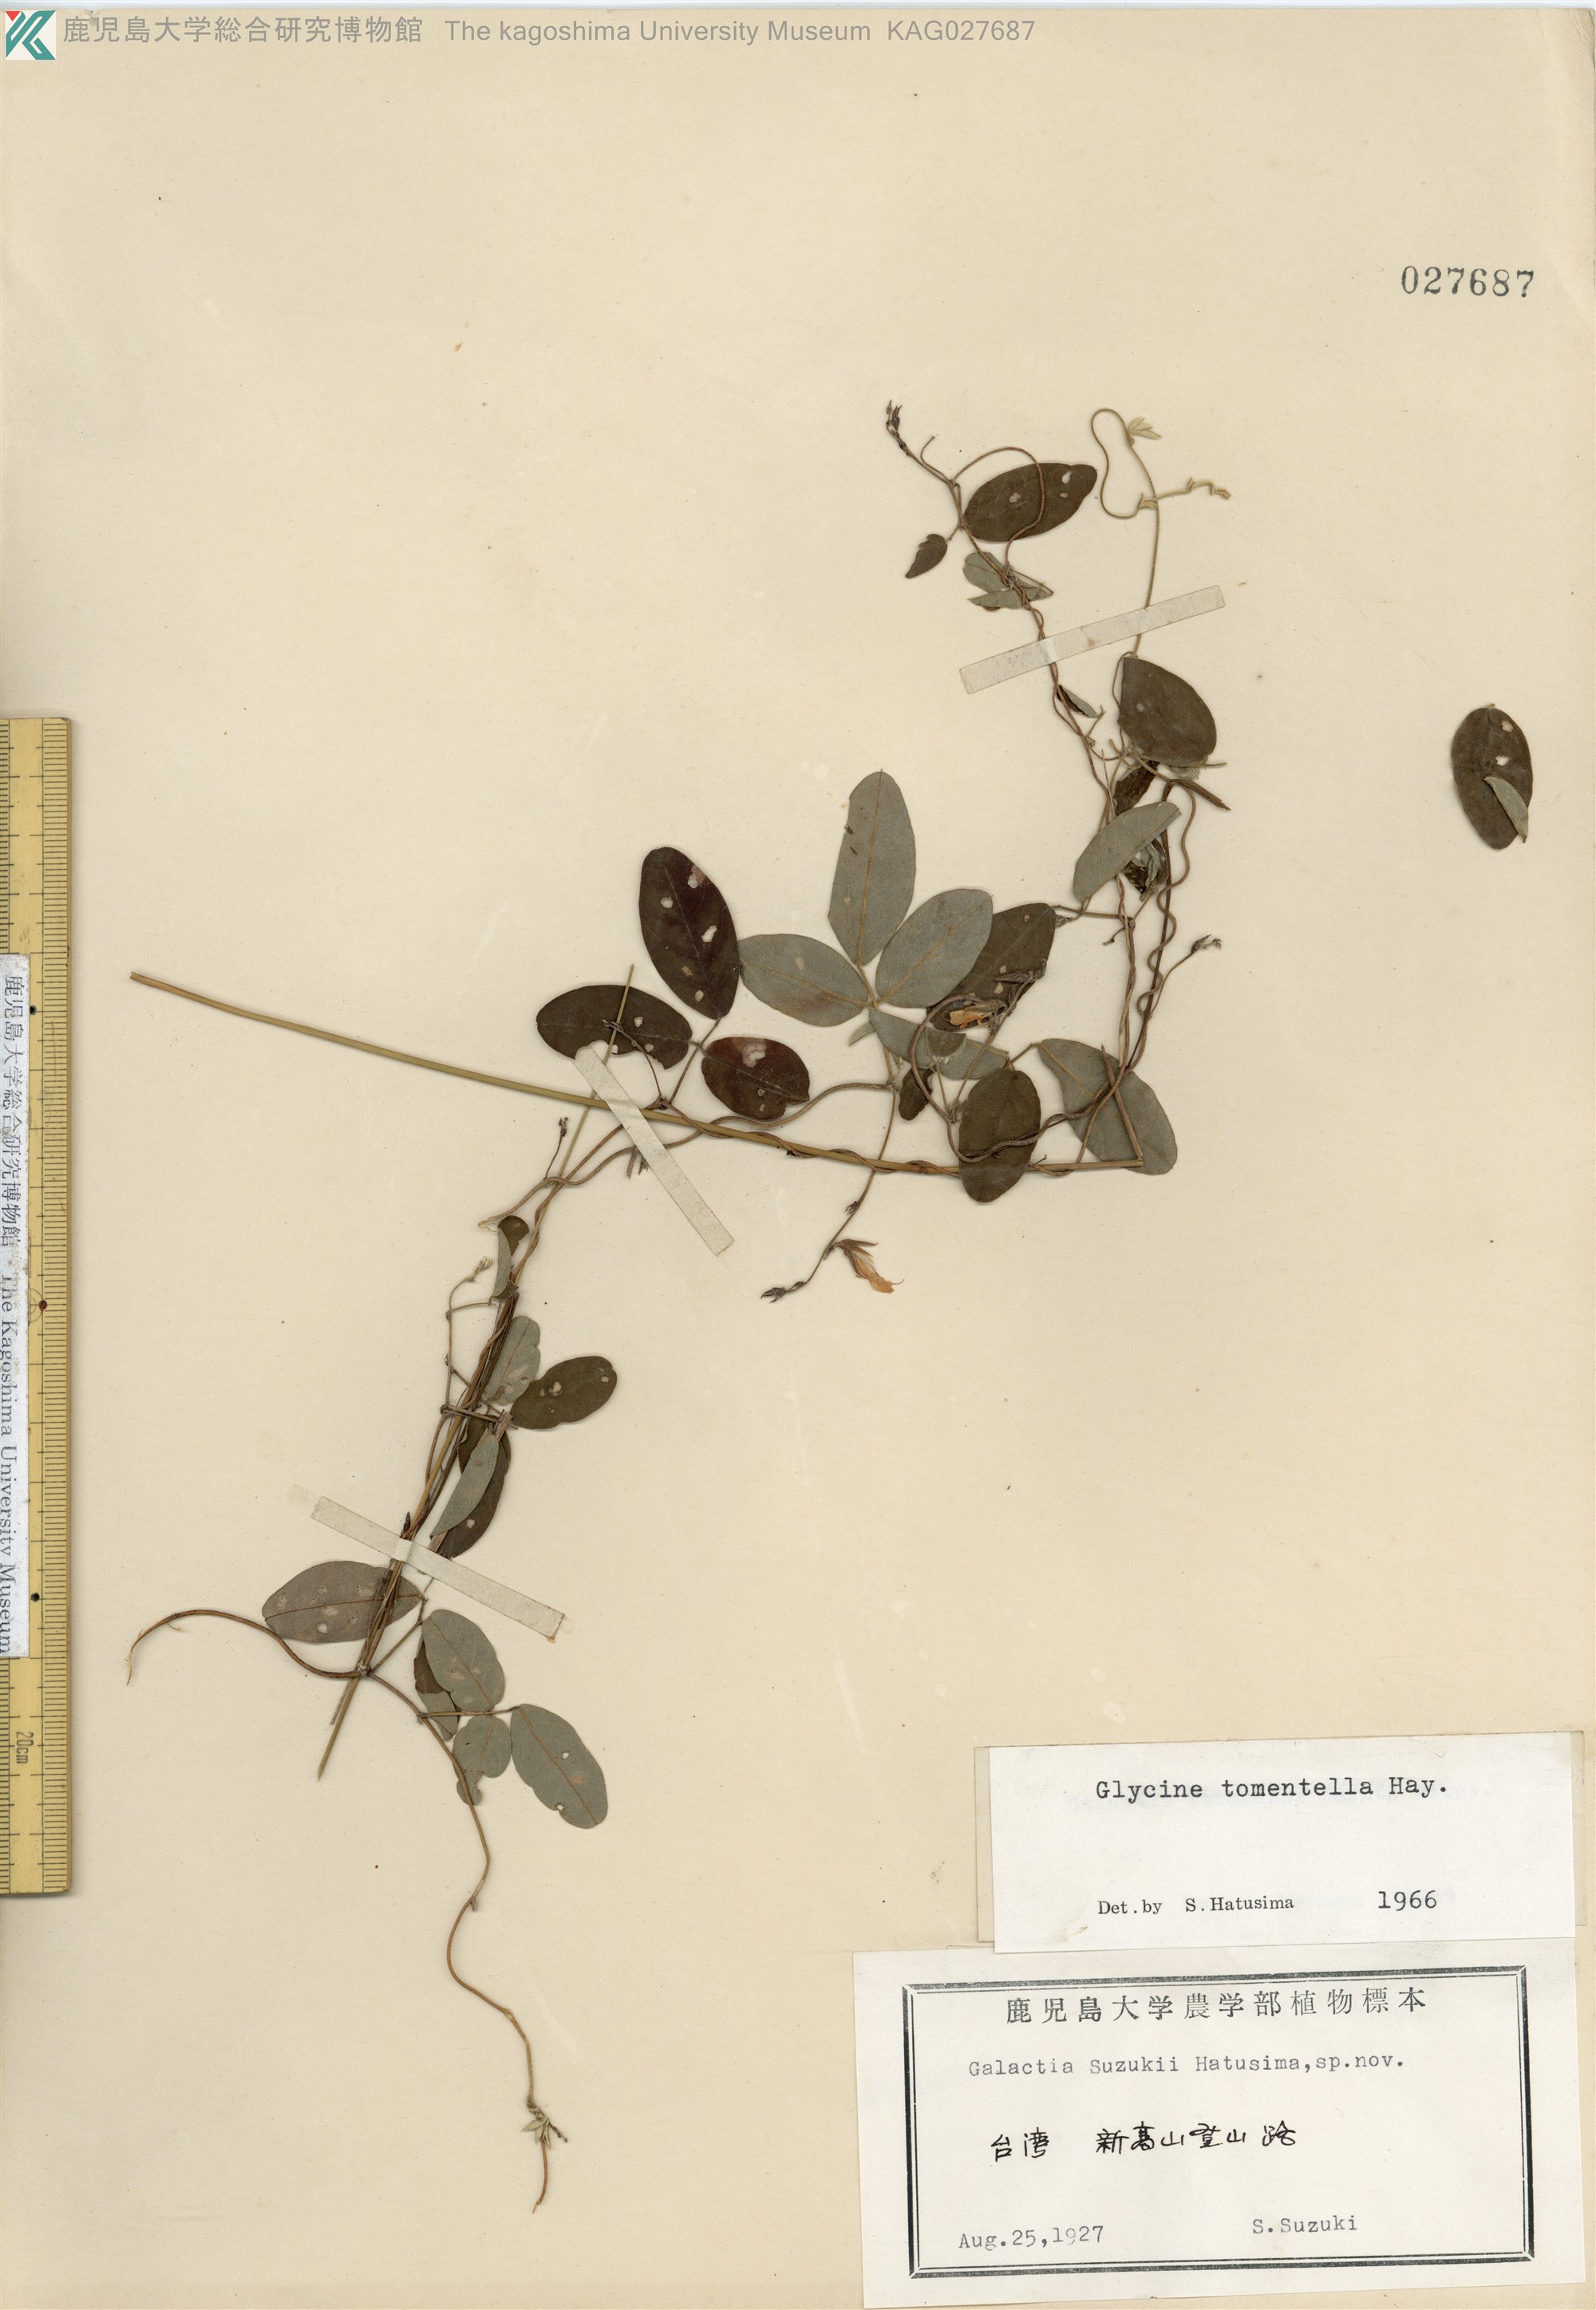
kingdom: Plantae
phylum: Tracheophyta
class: Magnoliopsida
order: Fabales
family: Fabaceae
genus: Glycine
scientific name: Glycine tomentella
